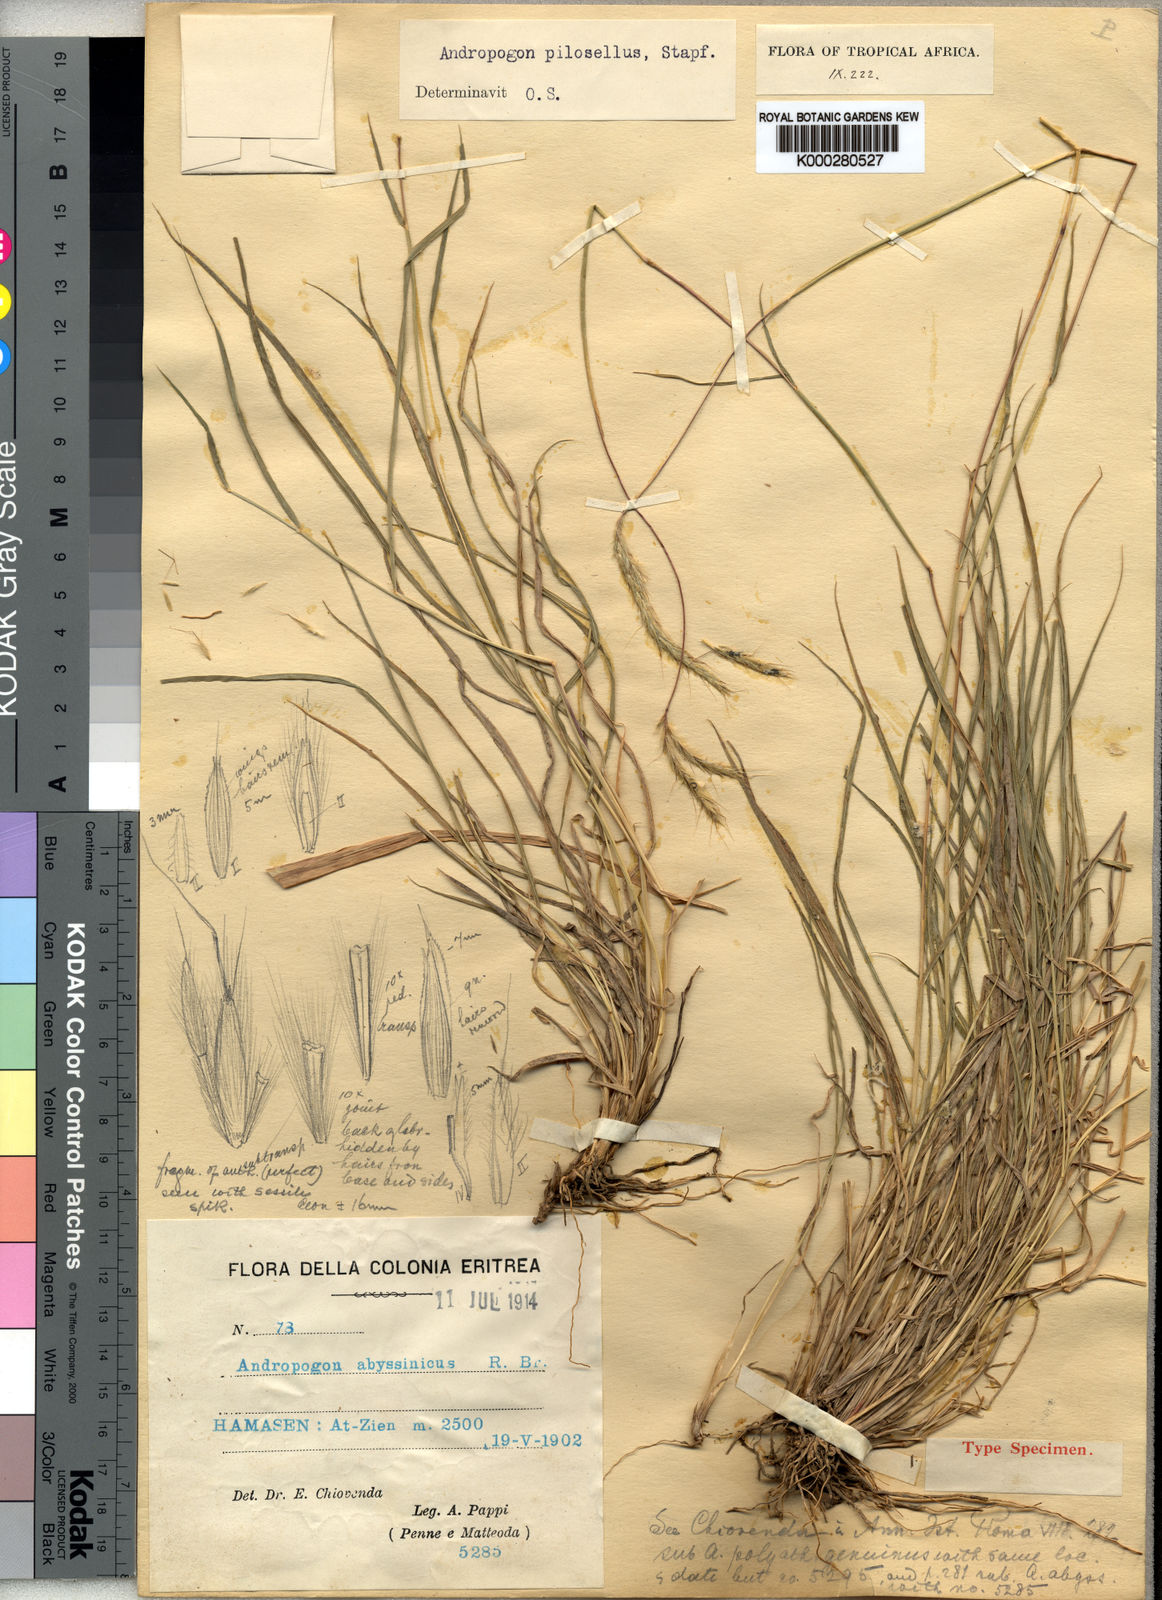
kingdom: Plantae
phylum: Tracheophyta
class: Liliopsida
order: Poales
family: Poaceae
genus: Andropogon
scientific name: Andropogon amethystinus
